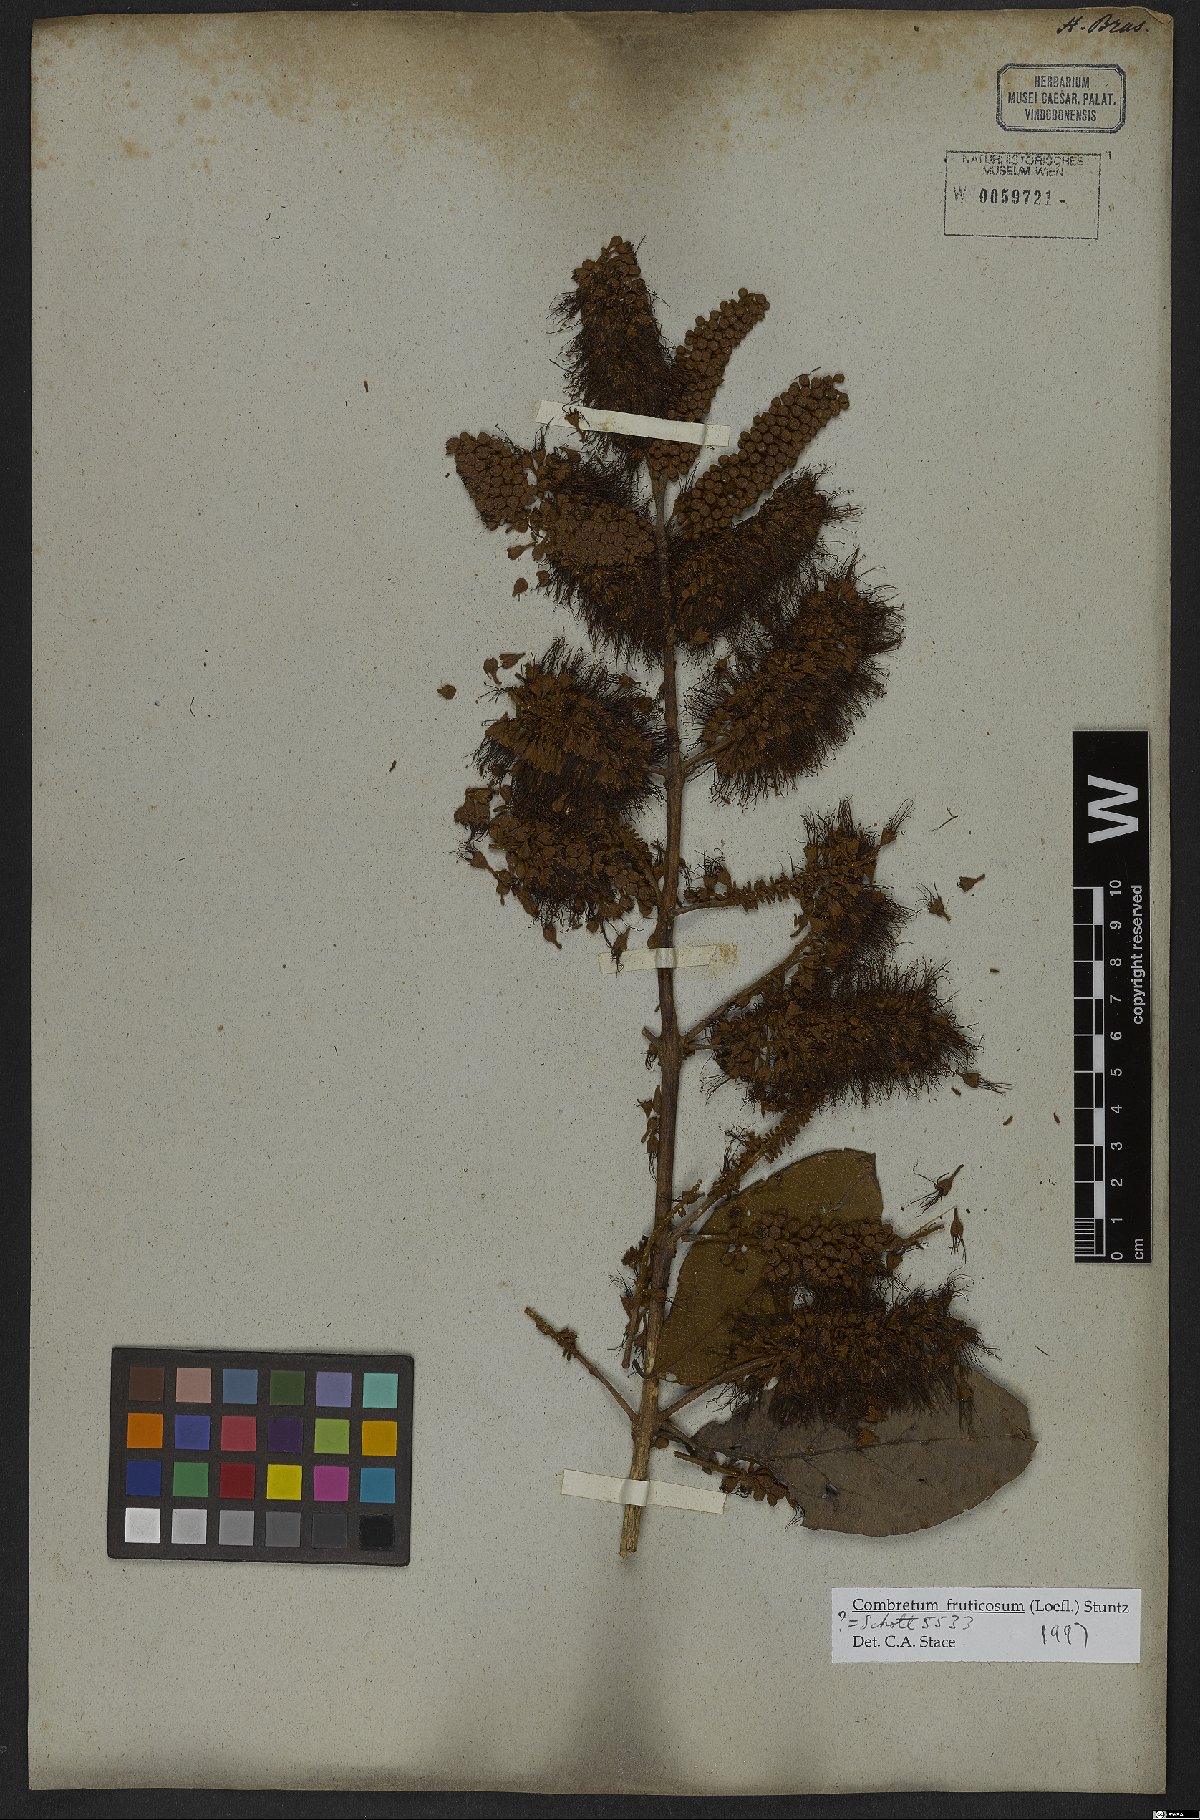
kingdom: Plantae
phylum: Tracheophyta
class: Magnoliopsida
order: Myrtales
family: Combretaceae
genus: Combretum
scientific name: Combretum fruticosum
